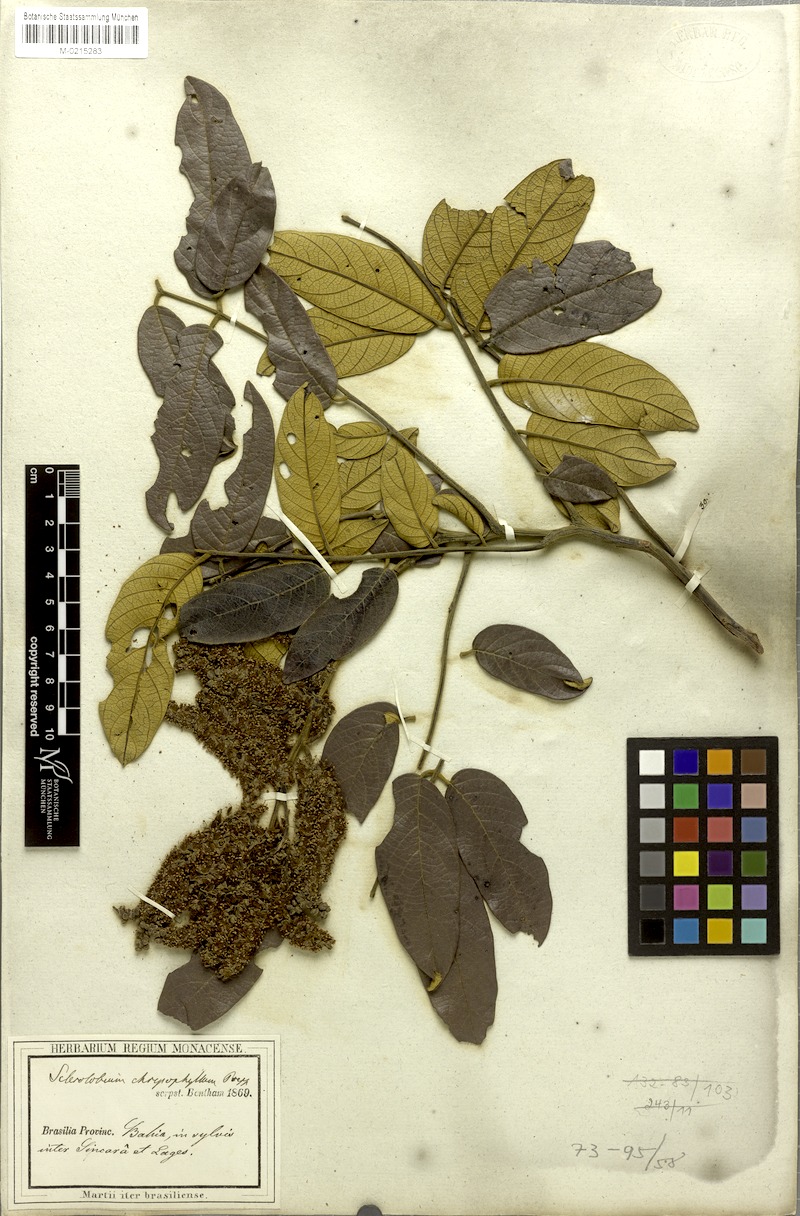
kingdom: Plantae
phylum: Tracheophyta
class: Magnoliopsida
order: Fabales
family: Fabaceae
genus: Tachigali
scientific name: Tachigali rugosa
